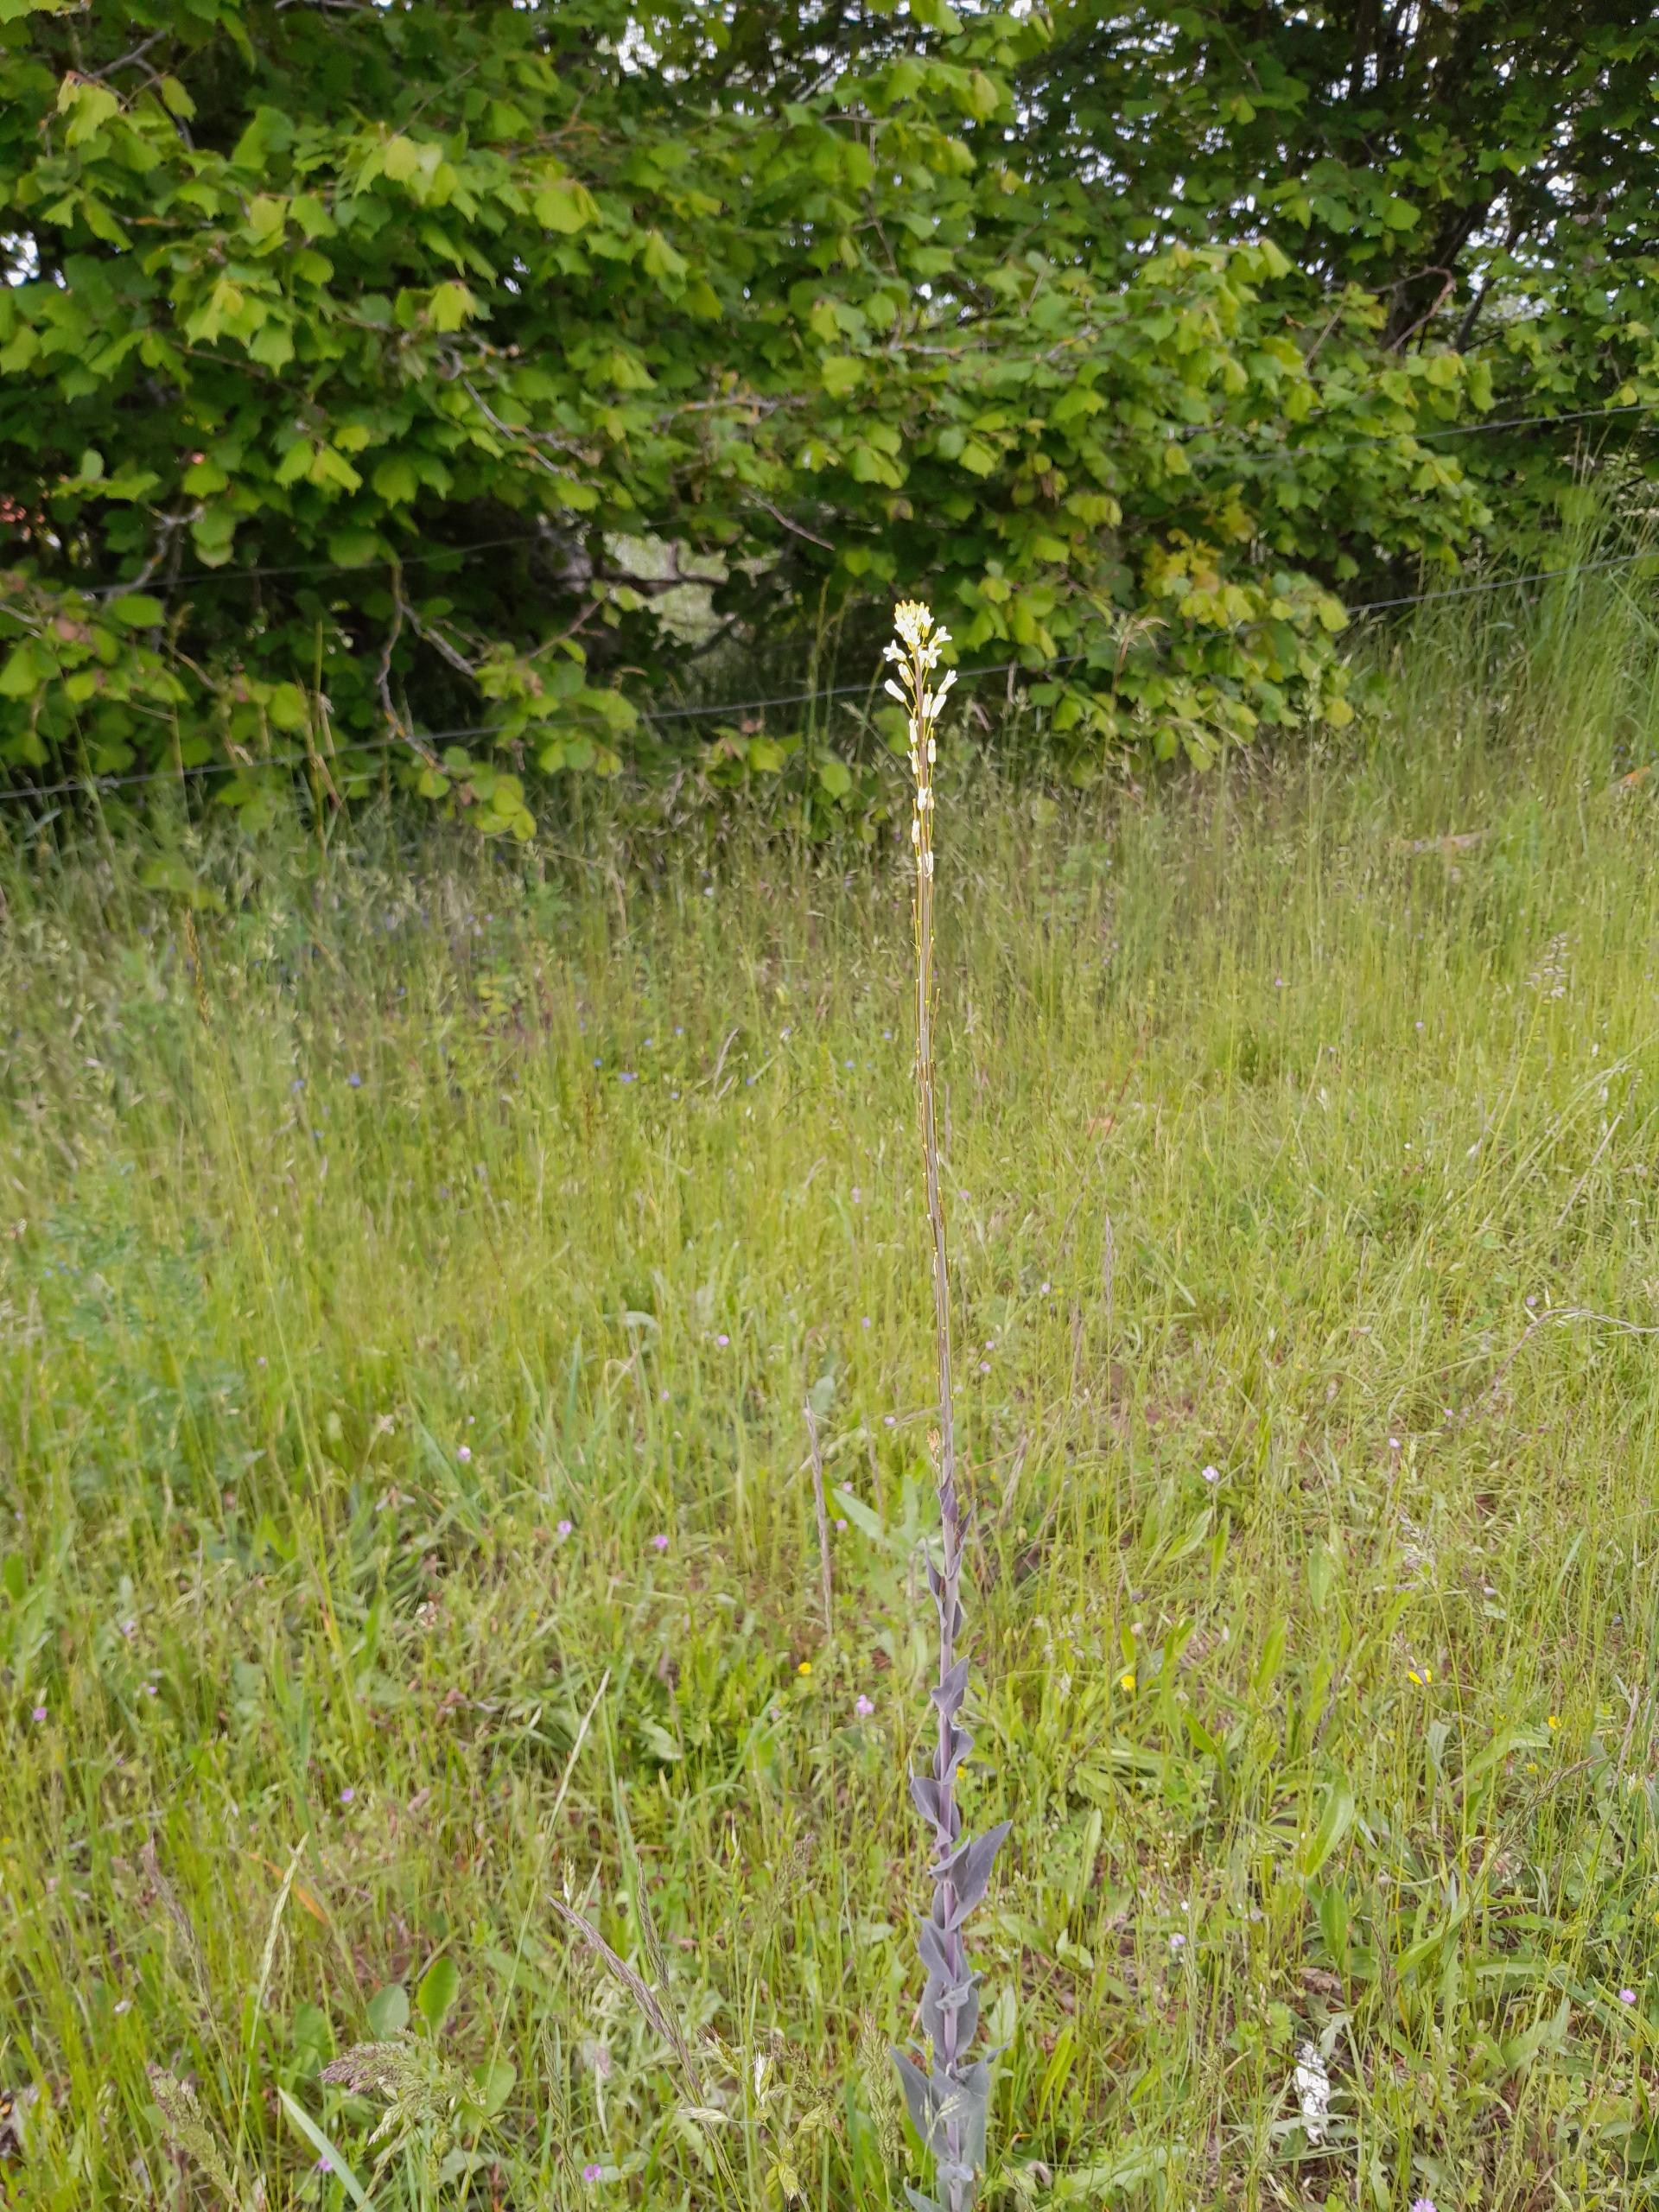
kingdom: Plantae
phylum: Tracheophyta
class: Magnoliopsida
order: Brassicales
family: Brassicaceae
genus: Turritis
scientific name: Turritis glabra
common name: Tårnurt
